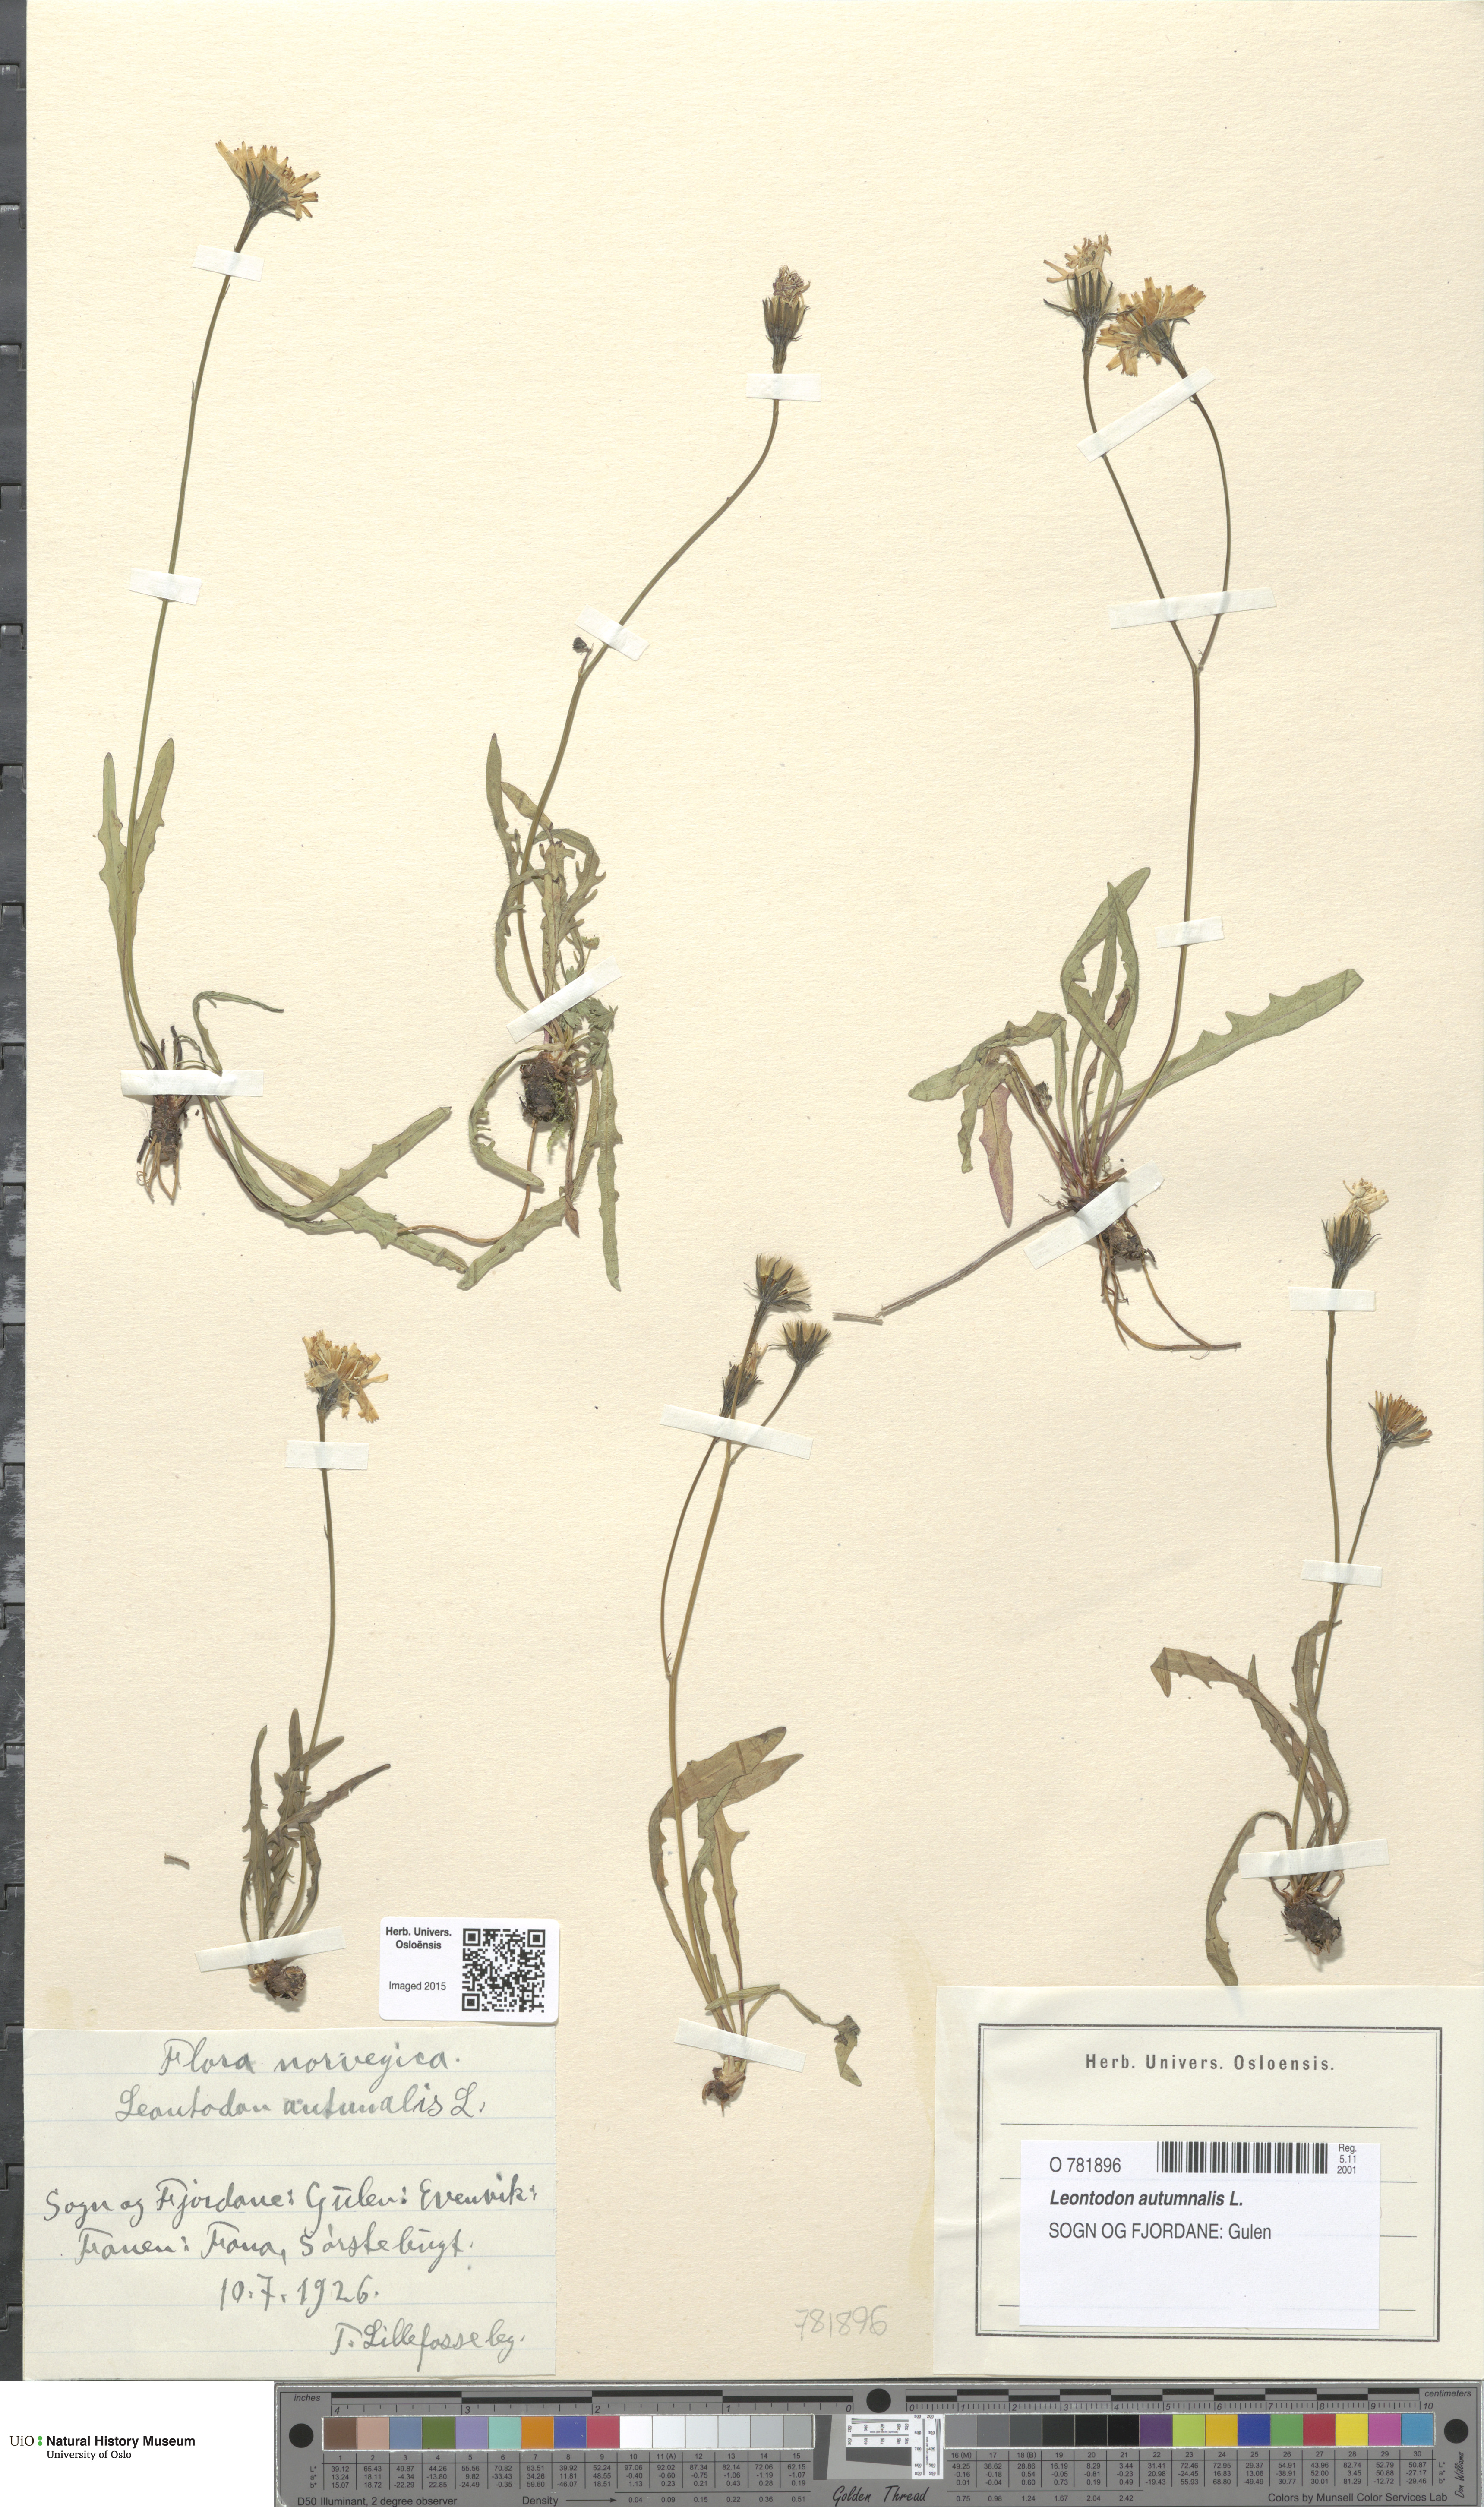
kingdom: Plantae
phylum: Tracheophyta
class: Magnoliopsida
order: Asterales
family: Asteraceae
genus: Scorzoneroides
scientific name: Scorzoneroides autumnalis
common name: Autumn hawkbit
